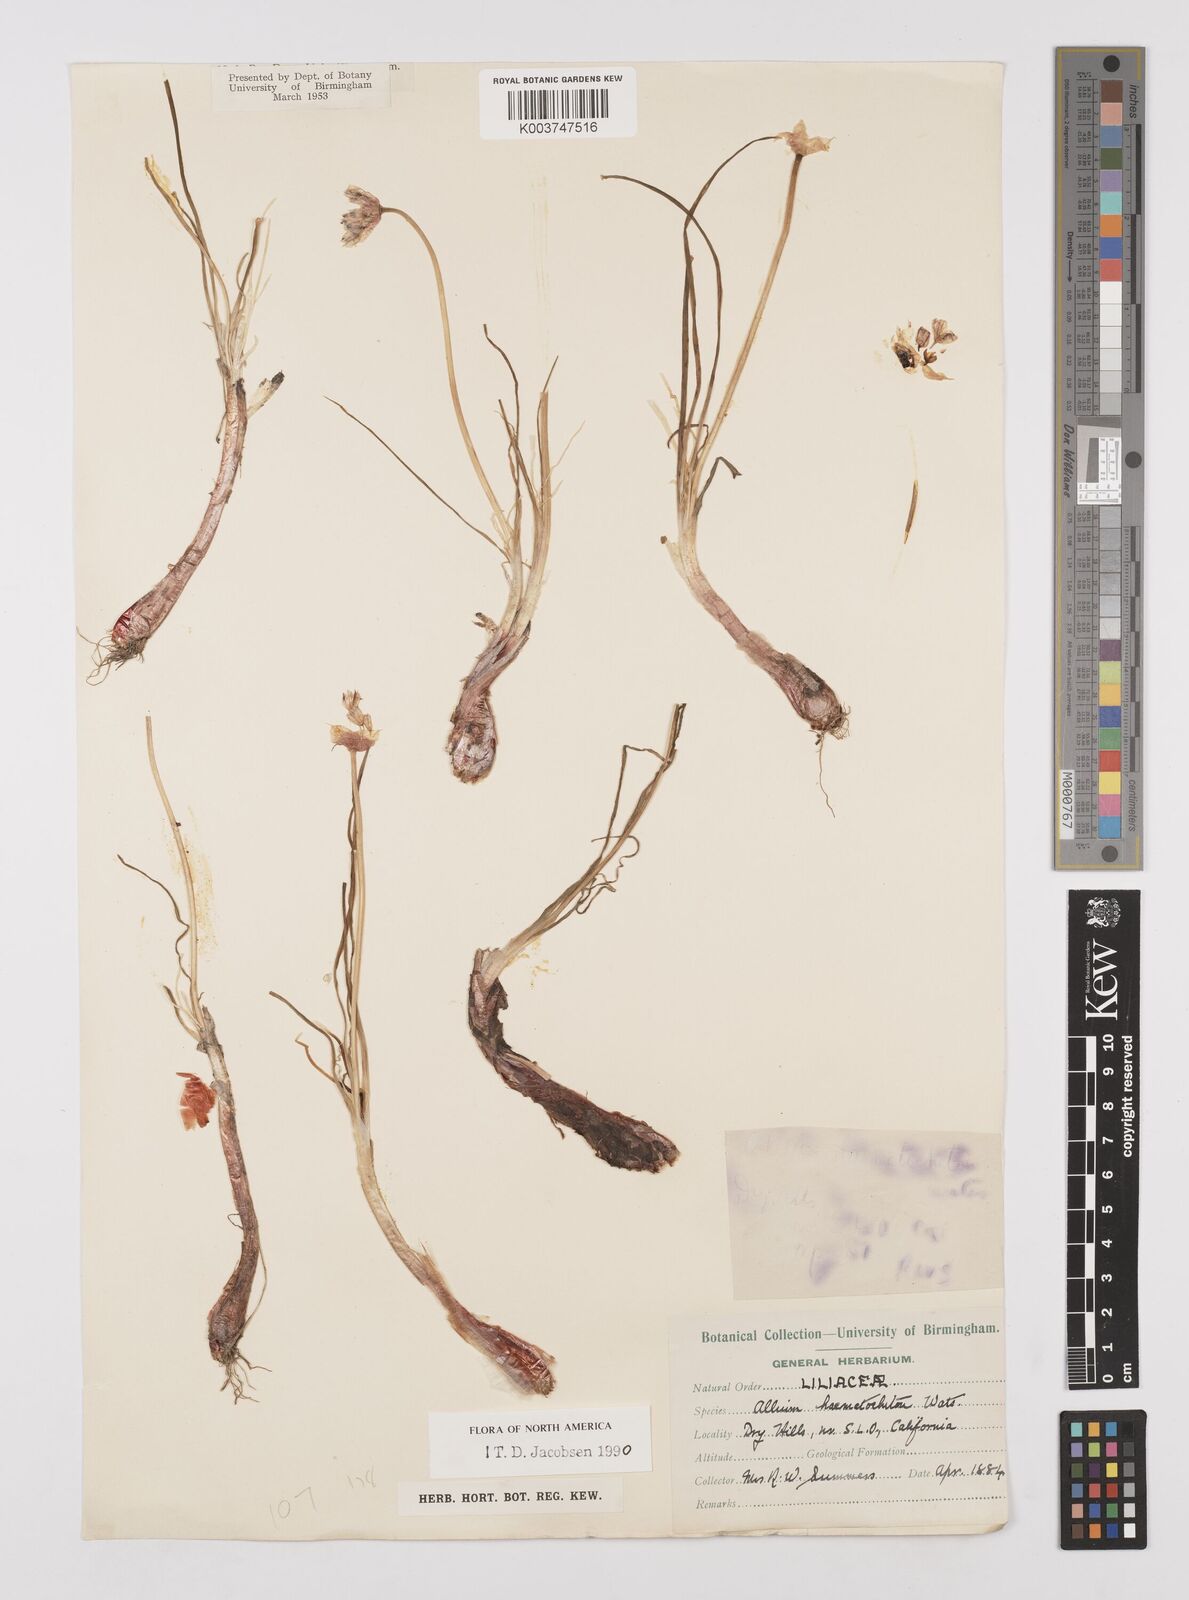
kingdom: Plantae
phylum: Tracheophyta
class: Liliopsida
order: Asparagales
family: Amaryllidaceae
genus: Allium
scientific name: Allium haematochiton
